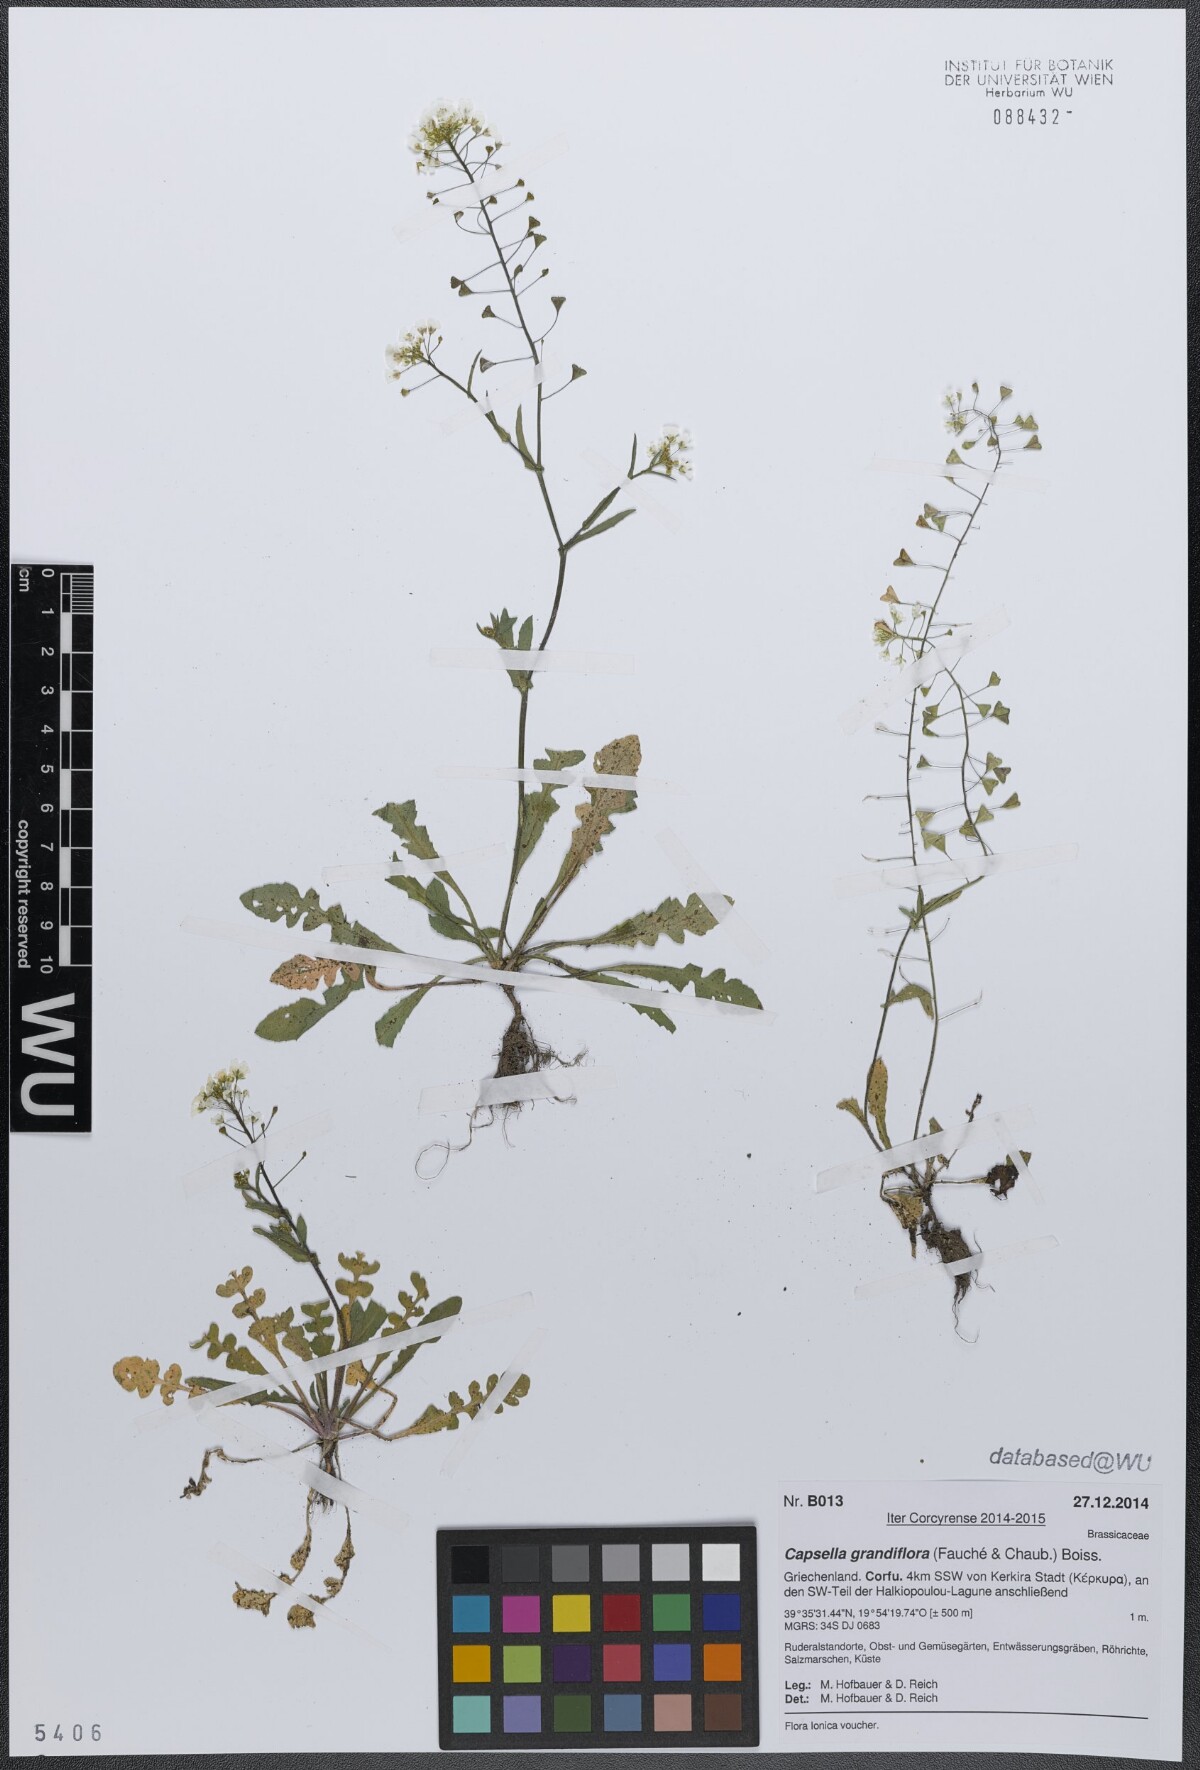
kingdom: Plantae
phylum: Tracheophyta
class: Magnoliopsida
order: Brassicales
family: Brassicaceae
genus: Capsella
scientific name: Capsella grandiflora
